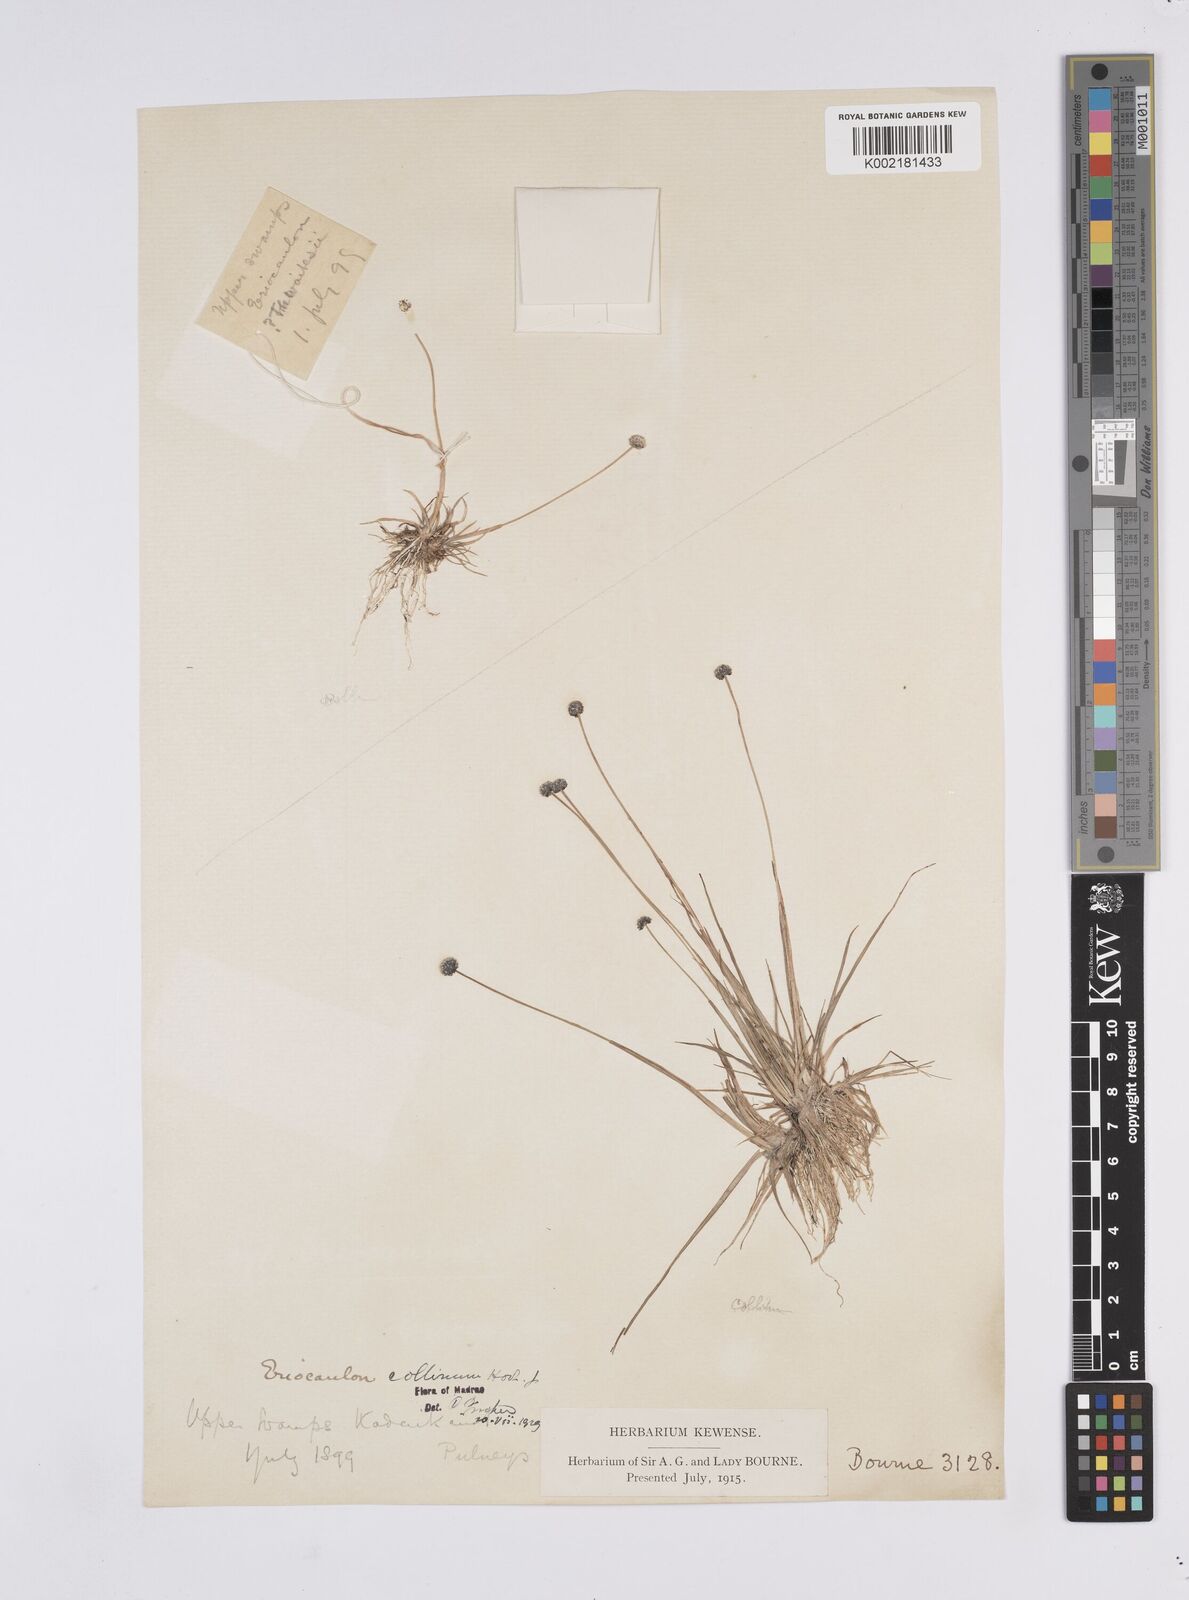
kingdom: Plantae
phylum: Tracheophyta
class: Liliopsida
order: Poales
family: Eriocaulaceae
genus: Eriocaulon
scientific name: Eriocaulon odoratum
